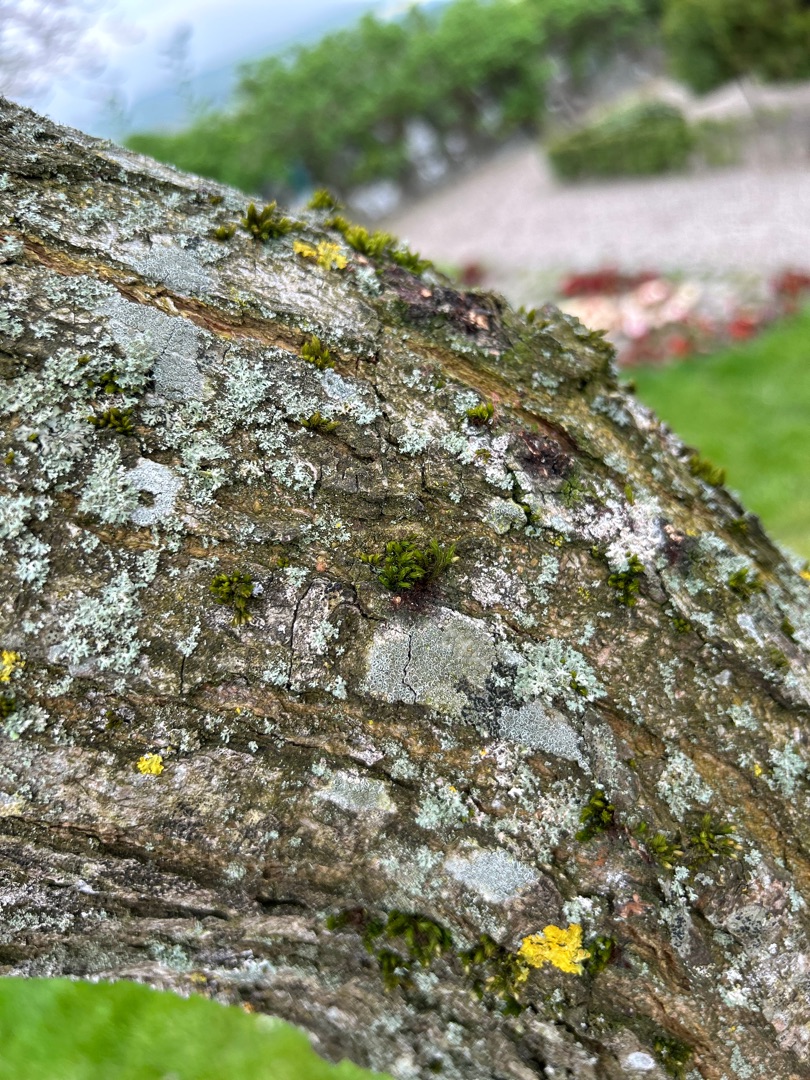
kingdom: Fungi
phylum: Ascomycota
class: Lecanoromycetes
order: Teloschistales
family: Teloschistaceae
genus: Xanthoria
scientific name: Xanthoria parietina
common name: Almindelig væggelav
